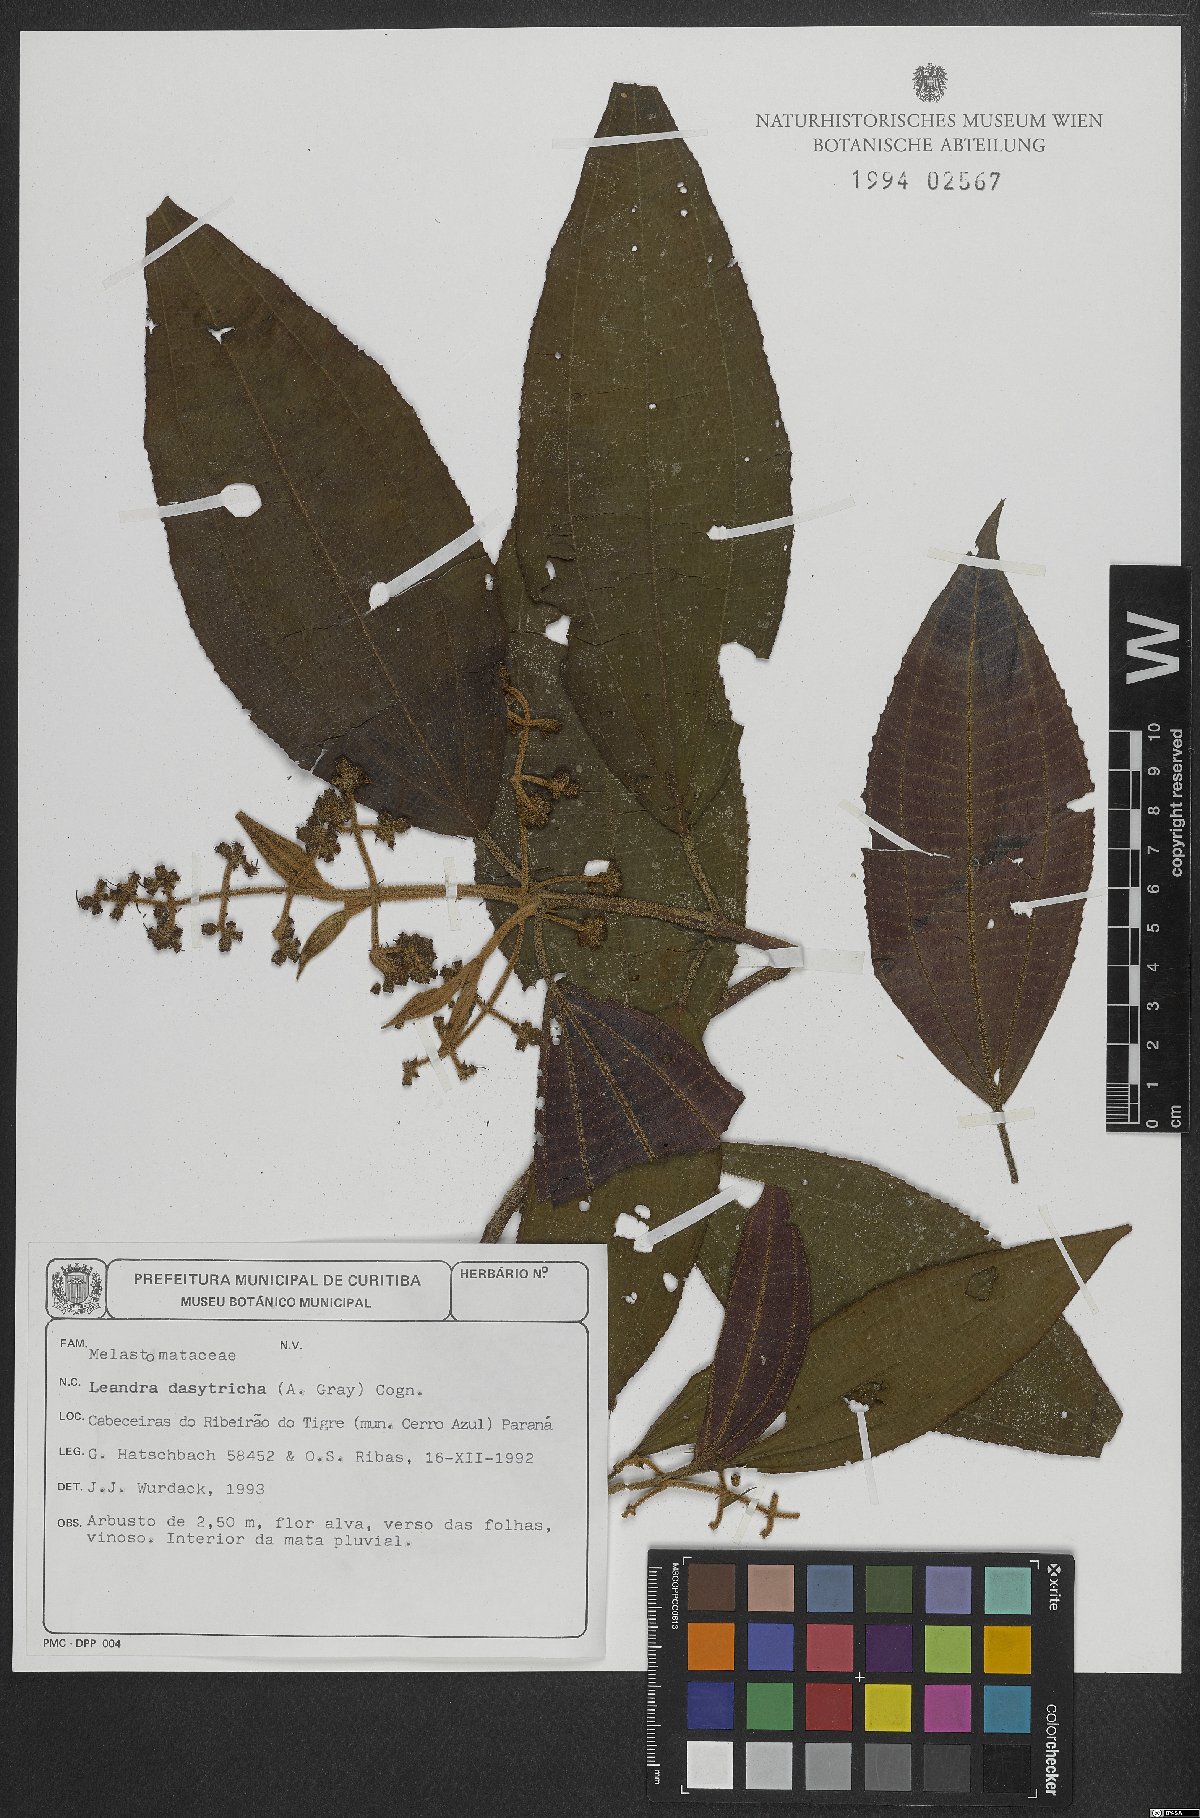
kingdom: Plantae
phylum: Tracheophyta
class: Magnoliopsida
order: Myrtales
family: Melastomataceae
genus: Miconia
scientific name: Miconia dasytricha
